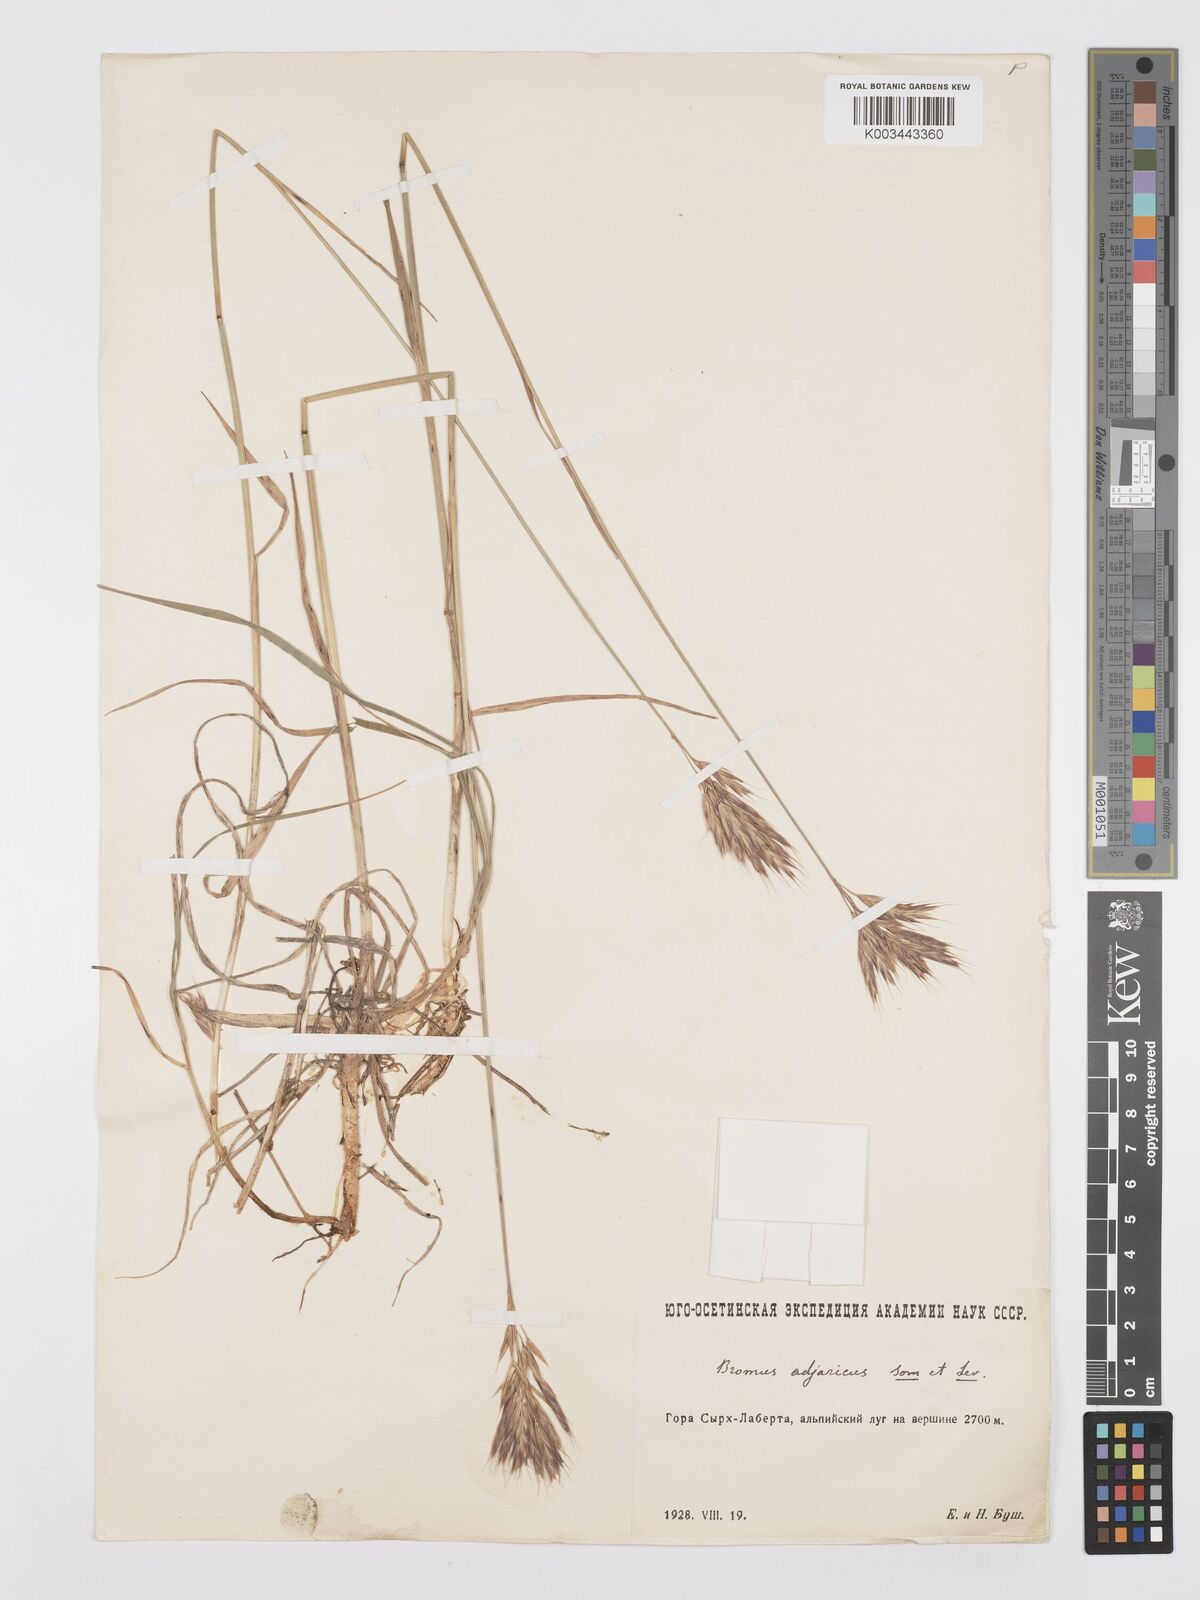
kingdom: Plantae
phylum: Tracheophyta
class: Liliopsida
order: Poales
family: Poaceae
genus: Bromus
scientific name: Bromus variegatus
